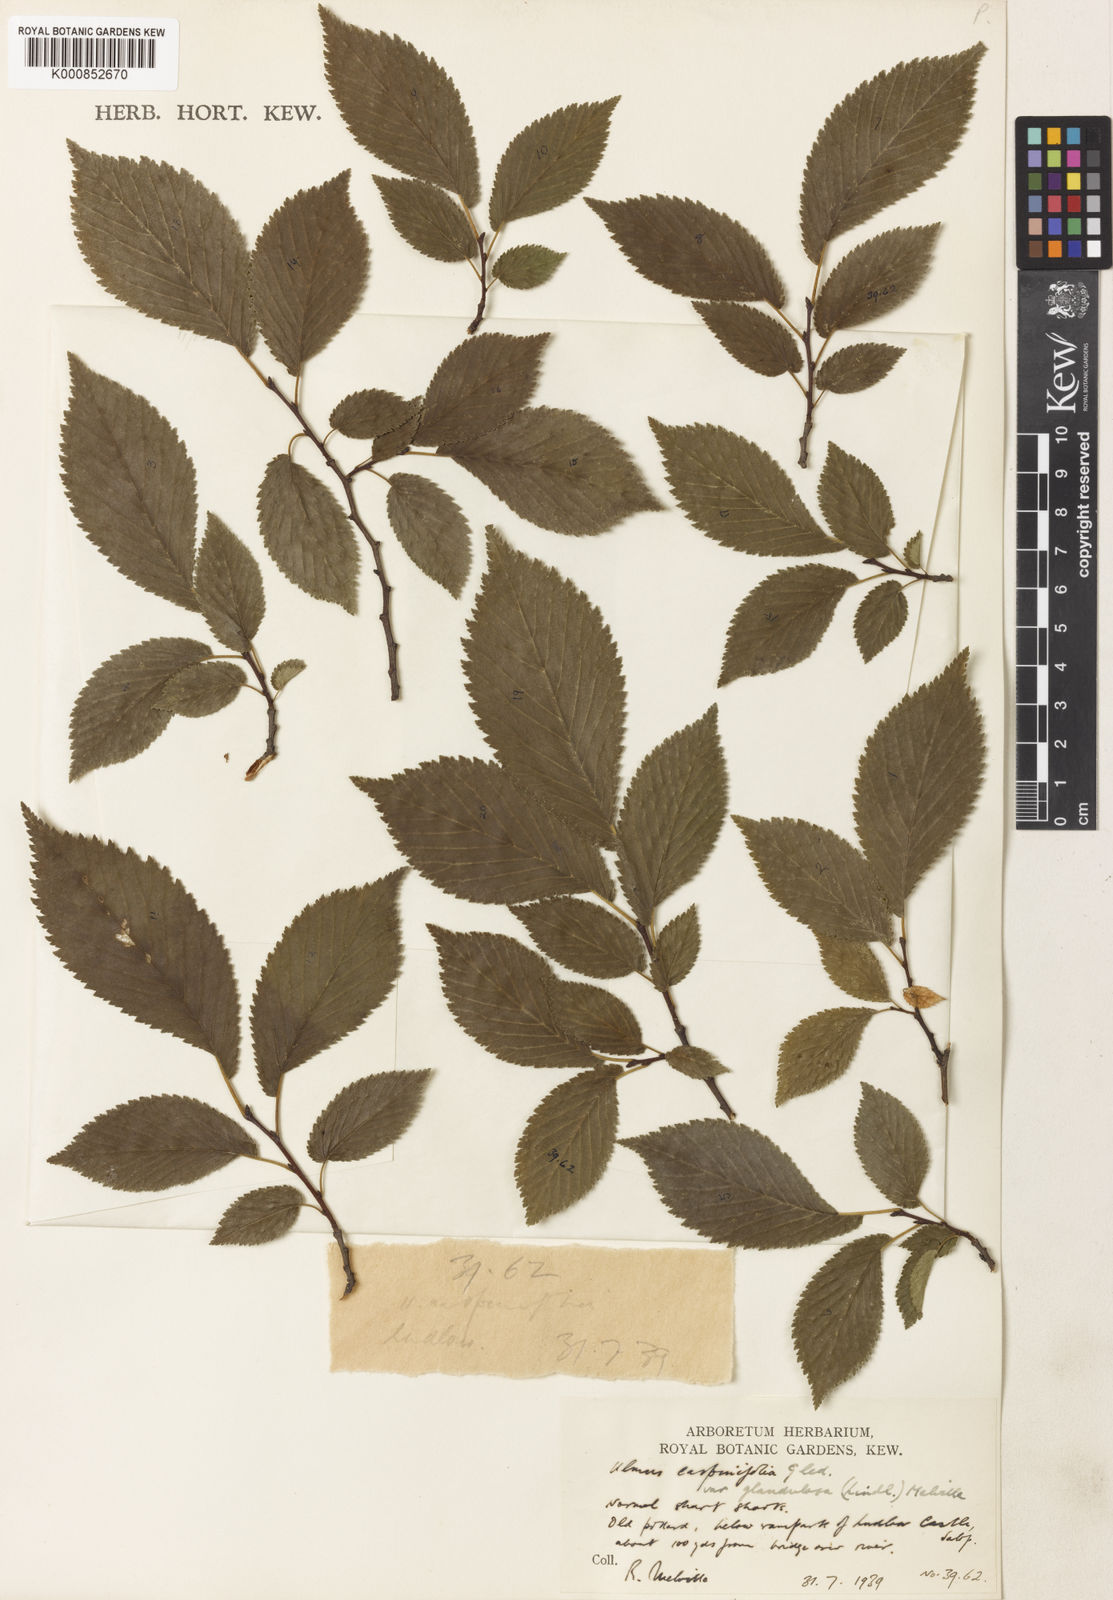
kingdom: Plantae
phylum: Tracheophyta
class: Magnoliopsida
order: Rosales
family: Ulmaceae
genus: Ulmus
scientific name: Ulmus minor
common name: Small-leaved elm
